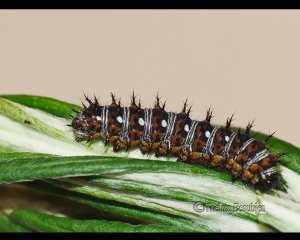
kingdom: Animalia
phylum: Arthropoda
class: Insecta
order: Lepidoptera
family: Nymphalidae
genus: Vanessa
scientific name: Vanessa virginiensis
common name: American Lady
